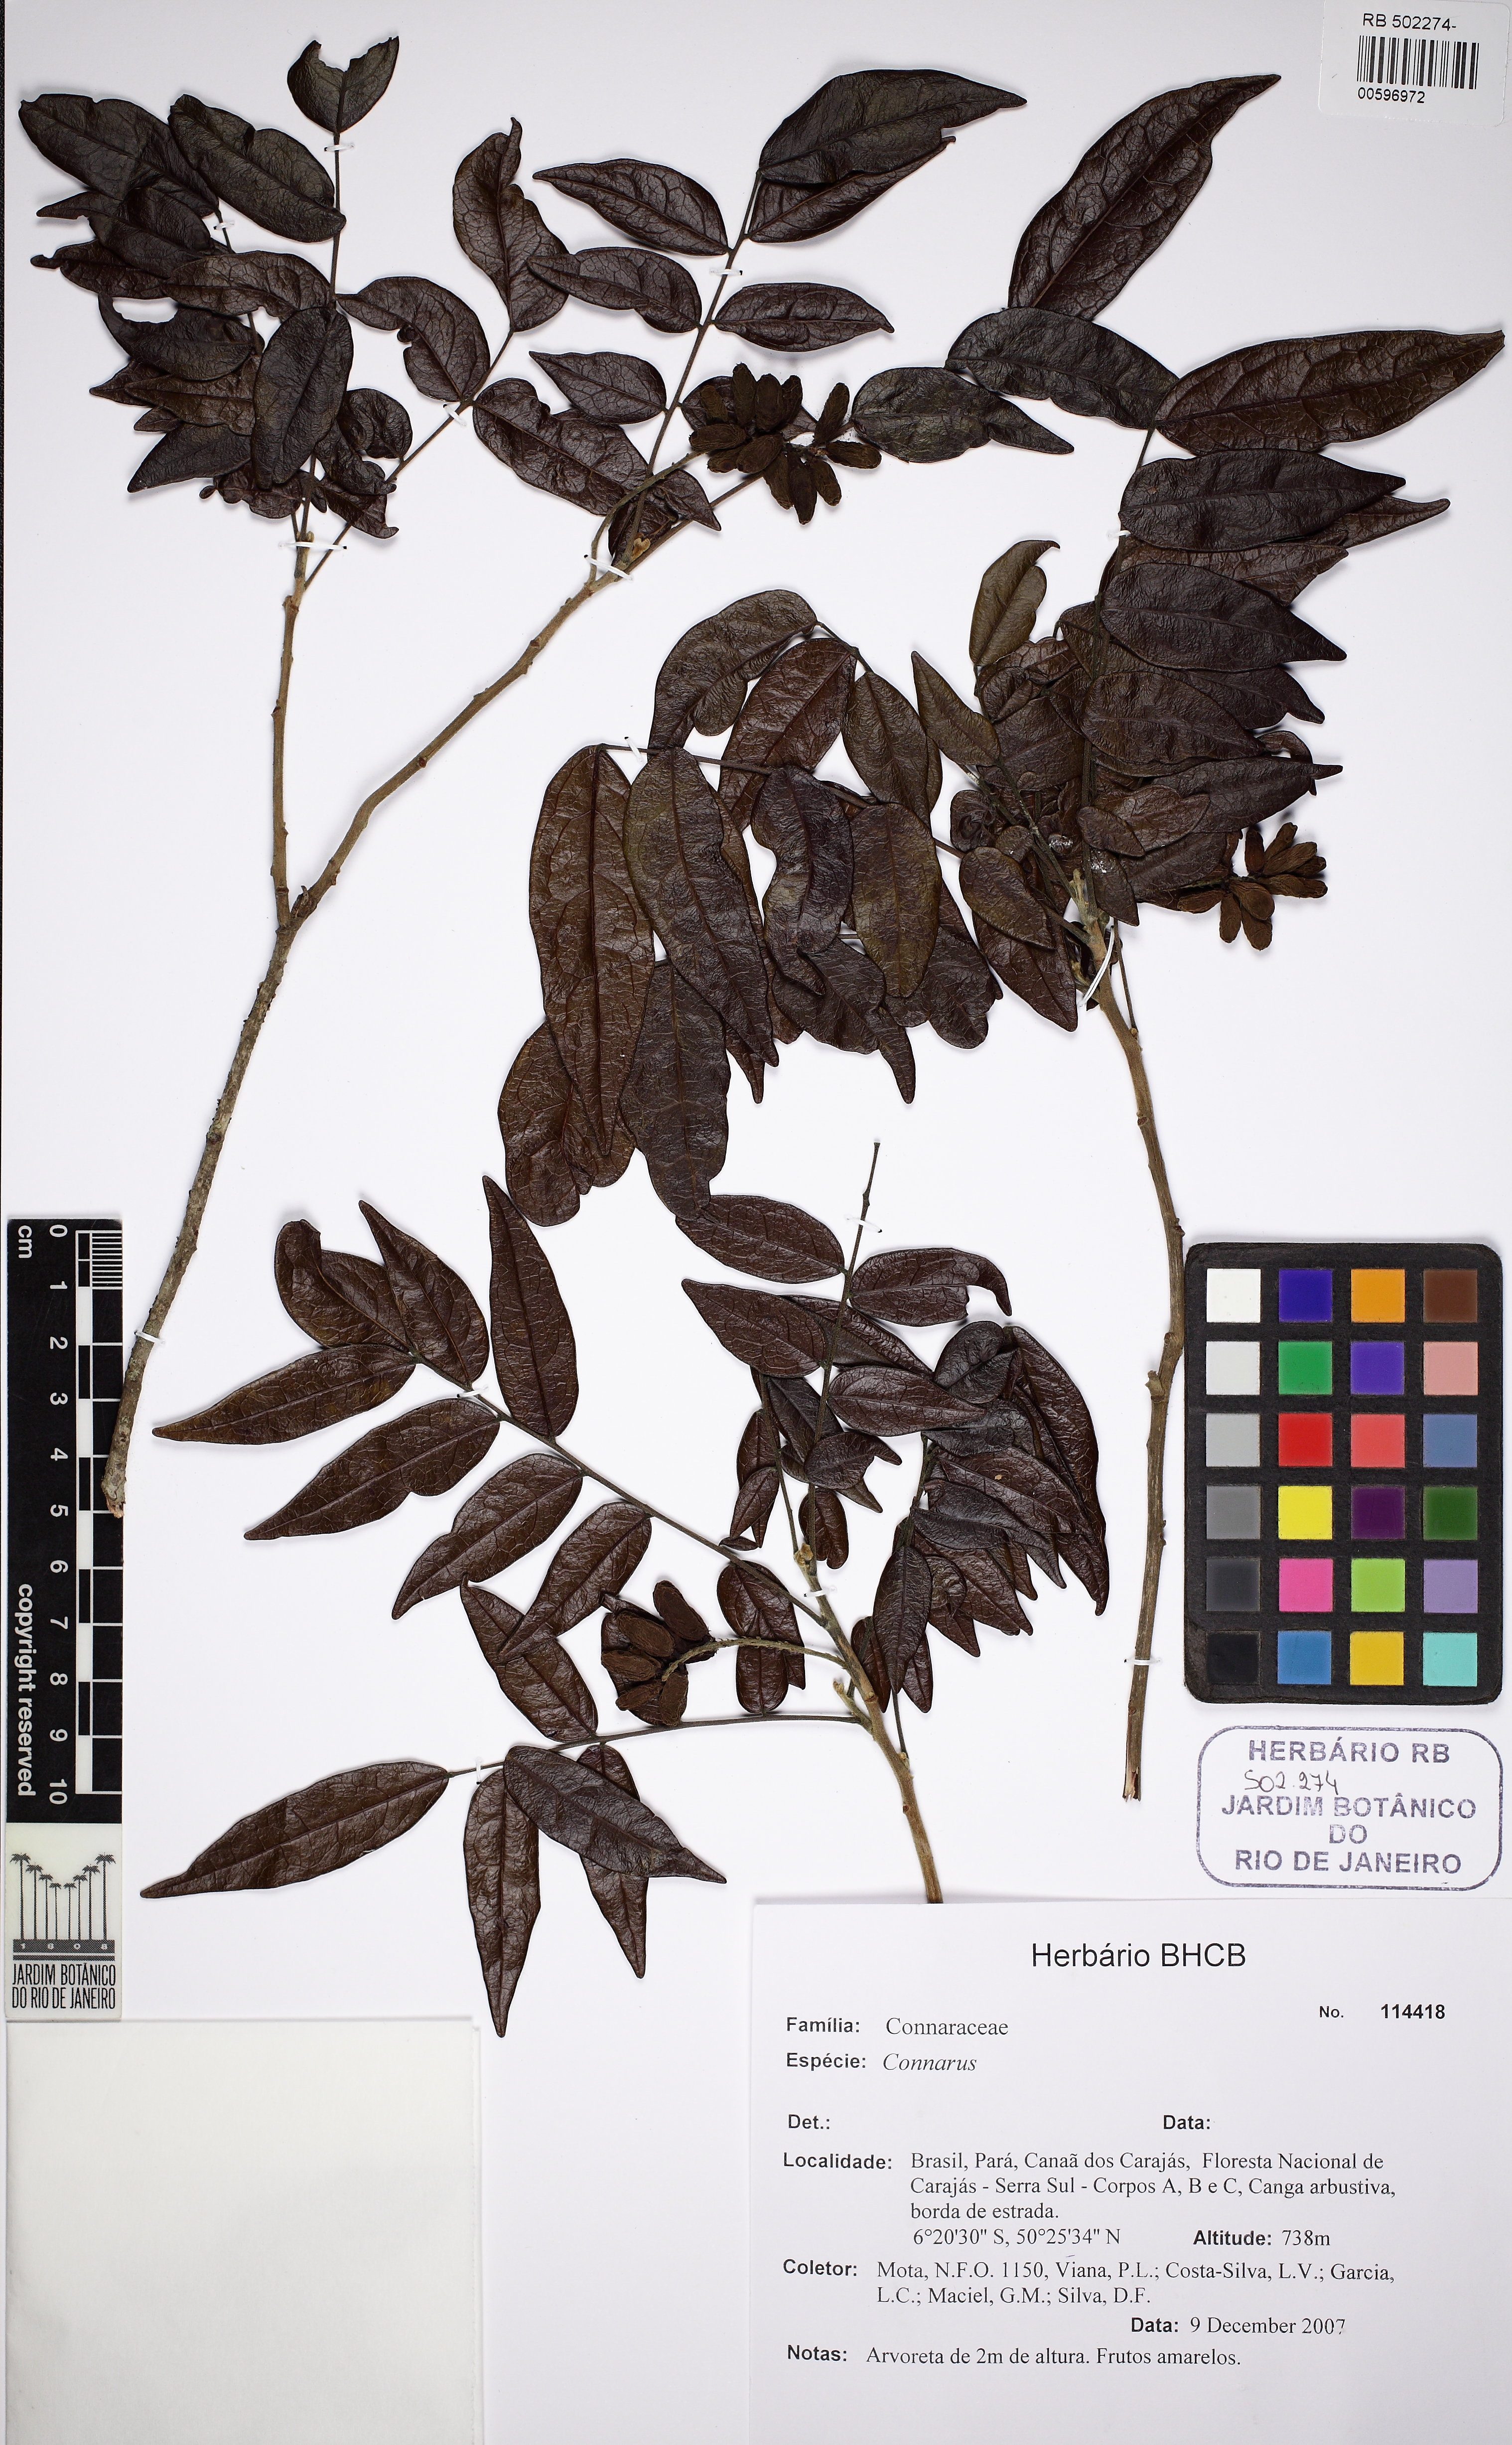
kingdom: Plantae
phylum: Tracheophyta
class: Magnoliopsida
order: Picramniales
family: Picramniaceae
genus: Picramnia
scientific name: Picramnia ferrea
